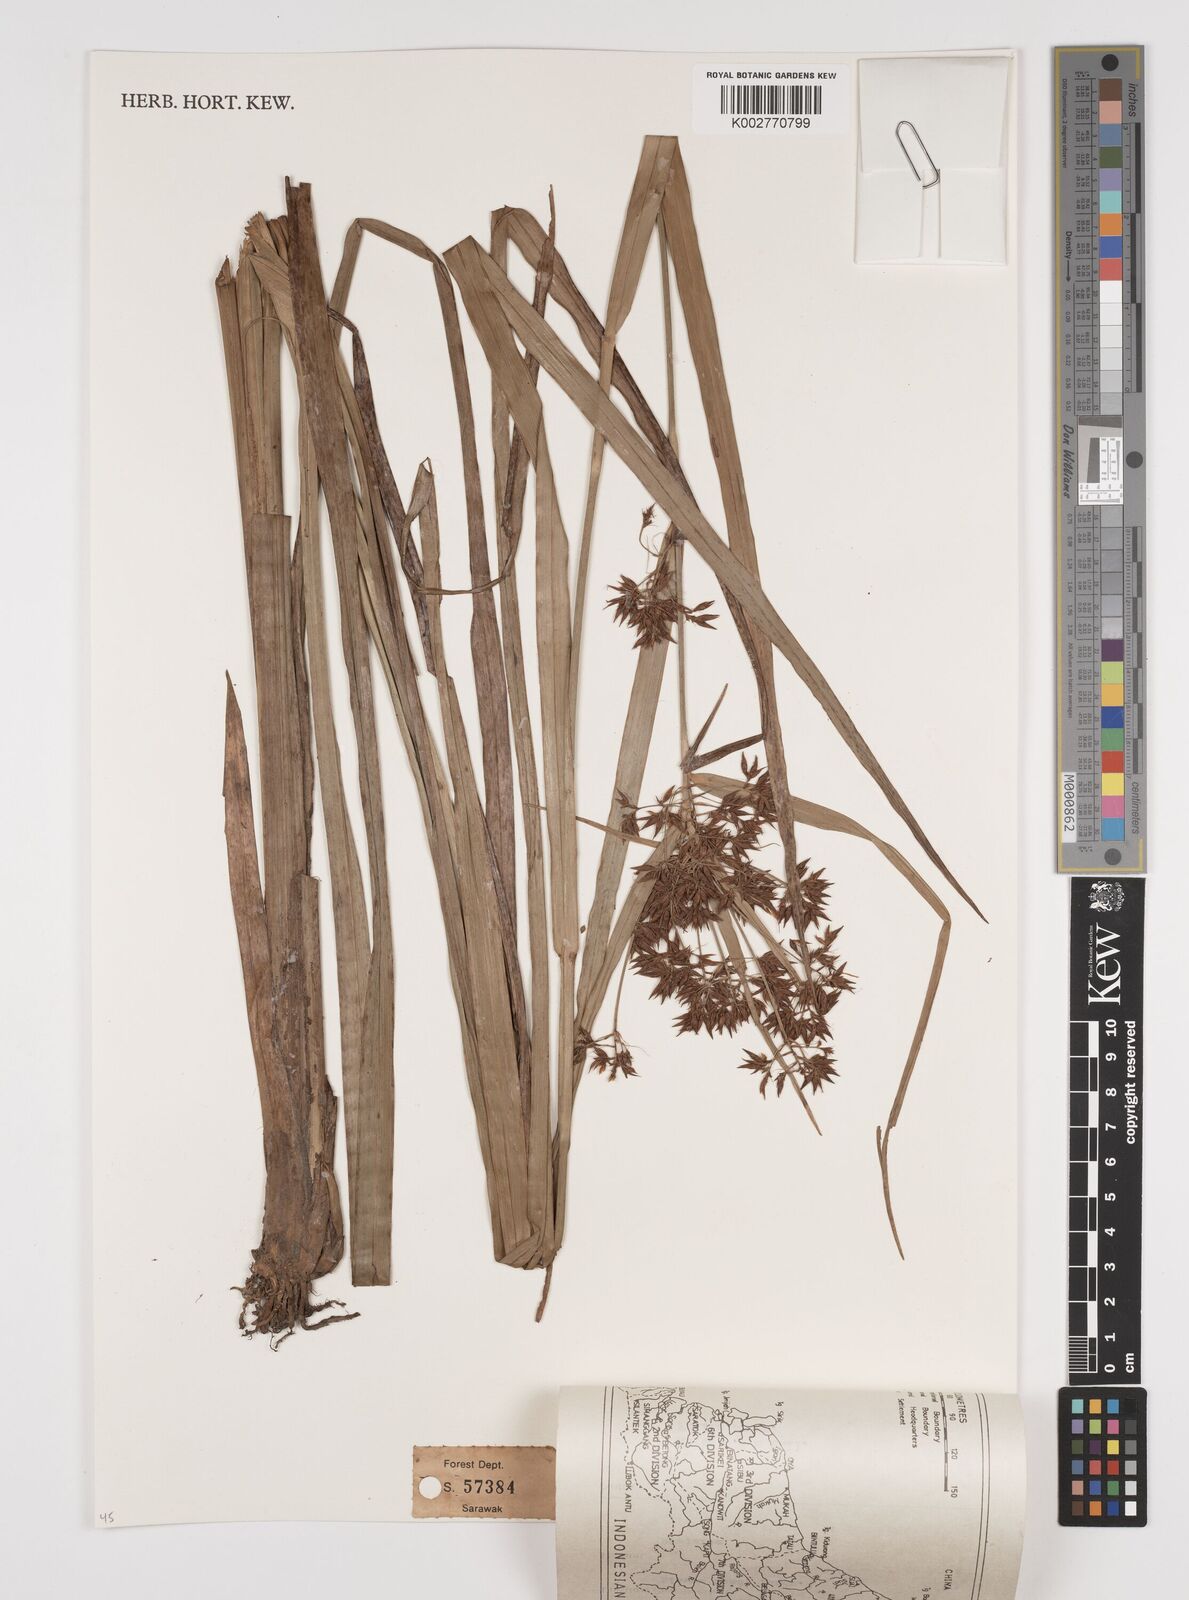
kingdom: Plantae
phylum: Tracheophyta
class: Liliopsida
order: Poales
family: Cyperaceae
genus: Rhynchospora
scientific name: Rhynchospora corymbosa
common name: Golden beak sedge
